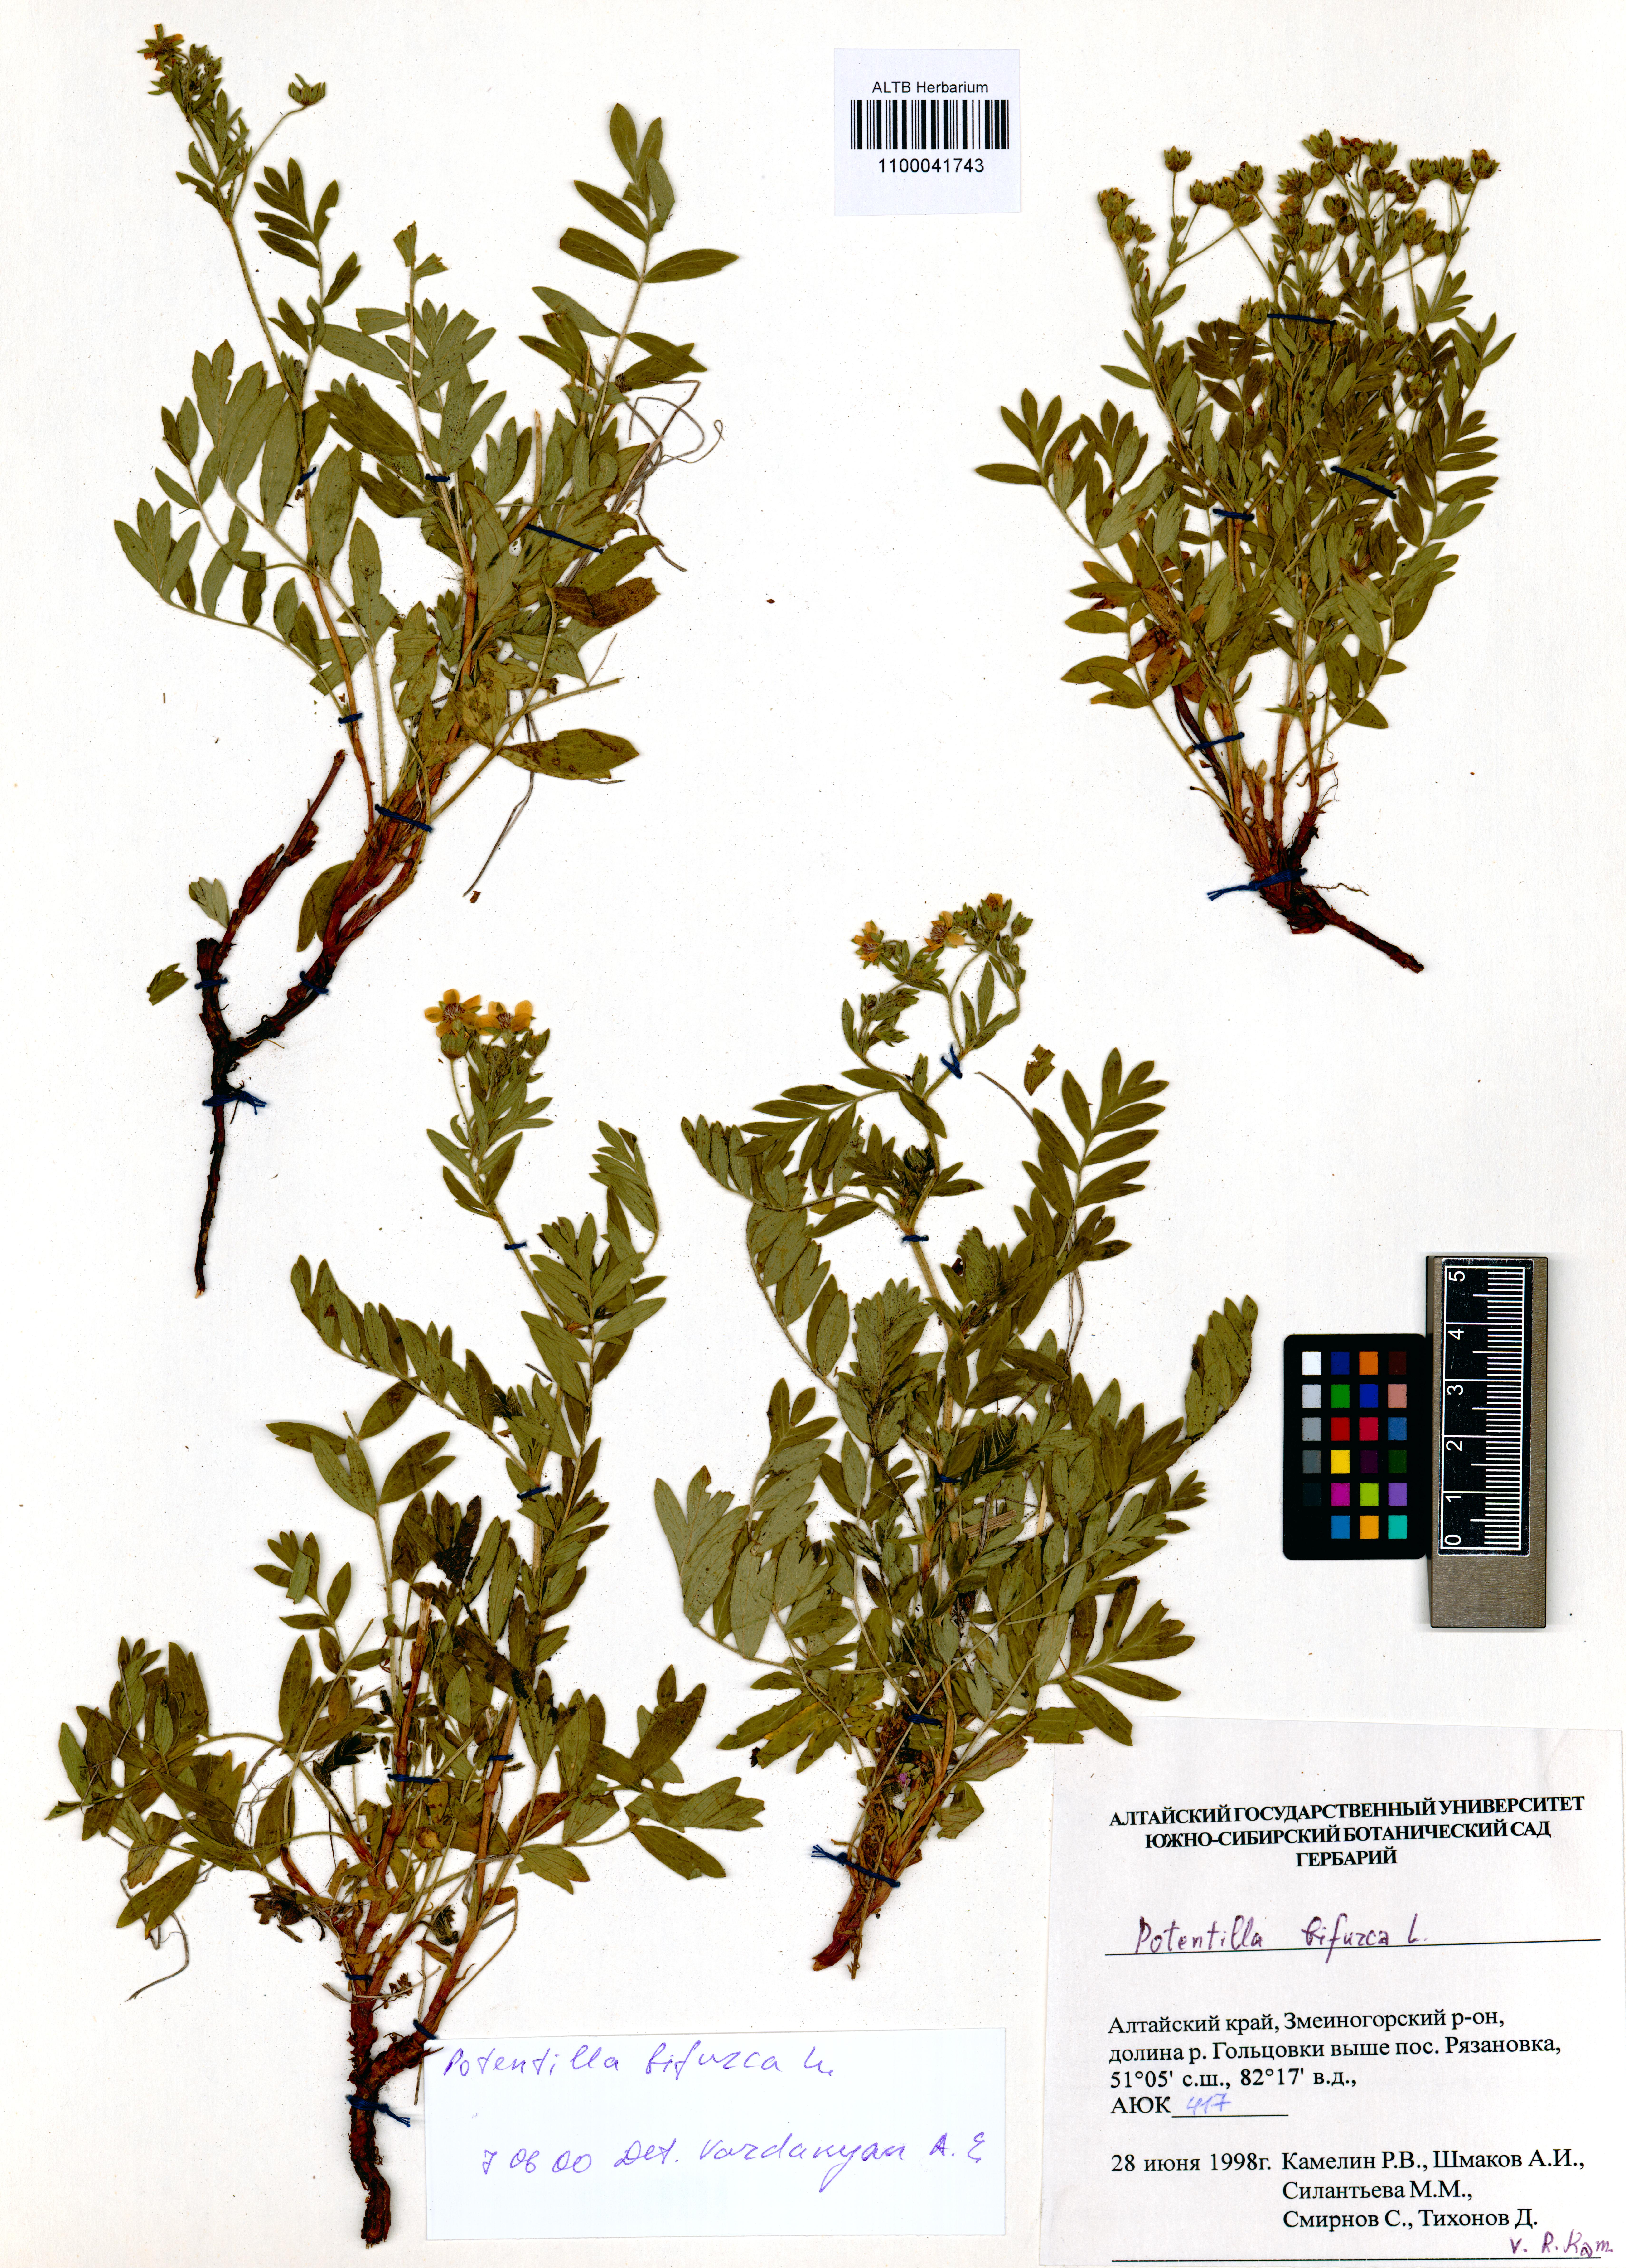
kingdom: Plantae
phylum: Tracheophyta
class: Magnoliopsida
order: Rosales
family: Rosaceae
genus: Sibbaldianthe
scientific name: Sibbaldianthe bifurca
